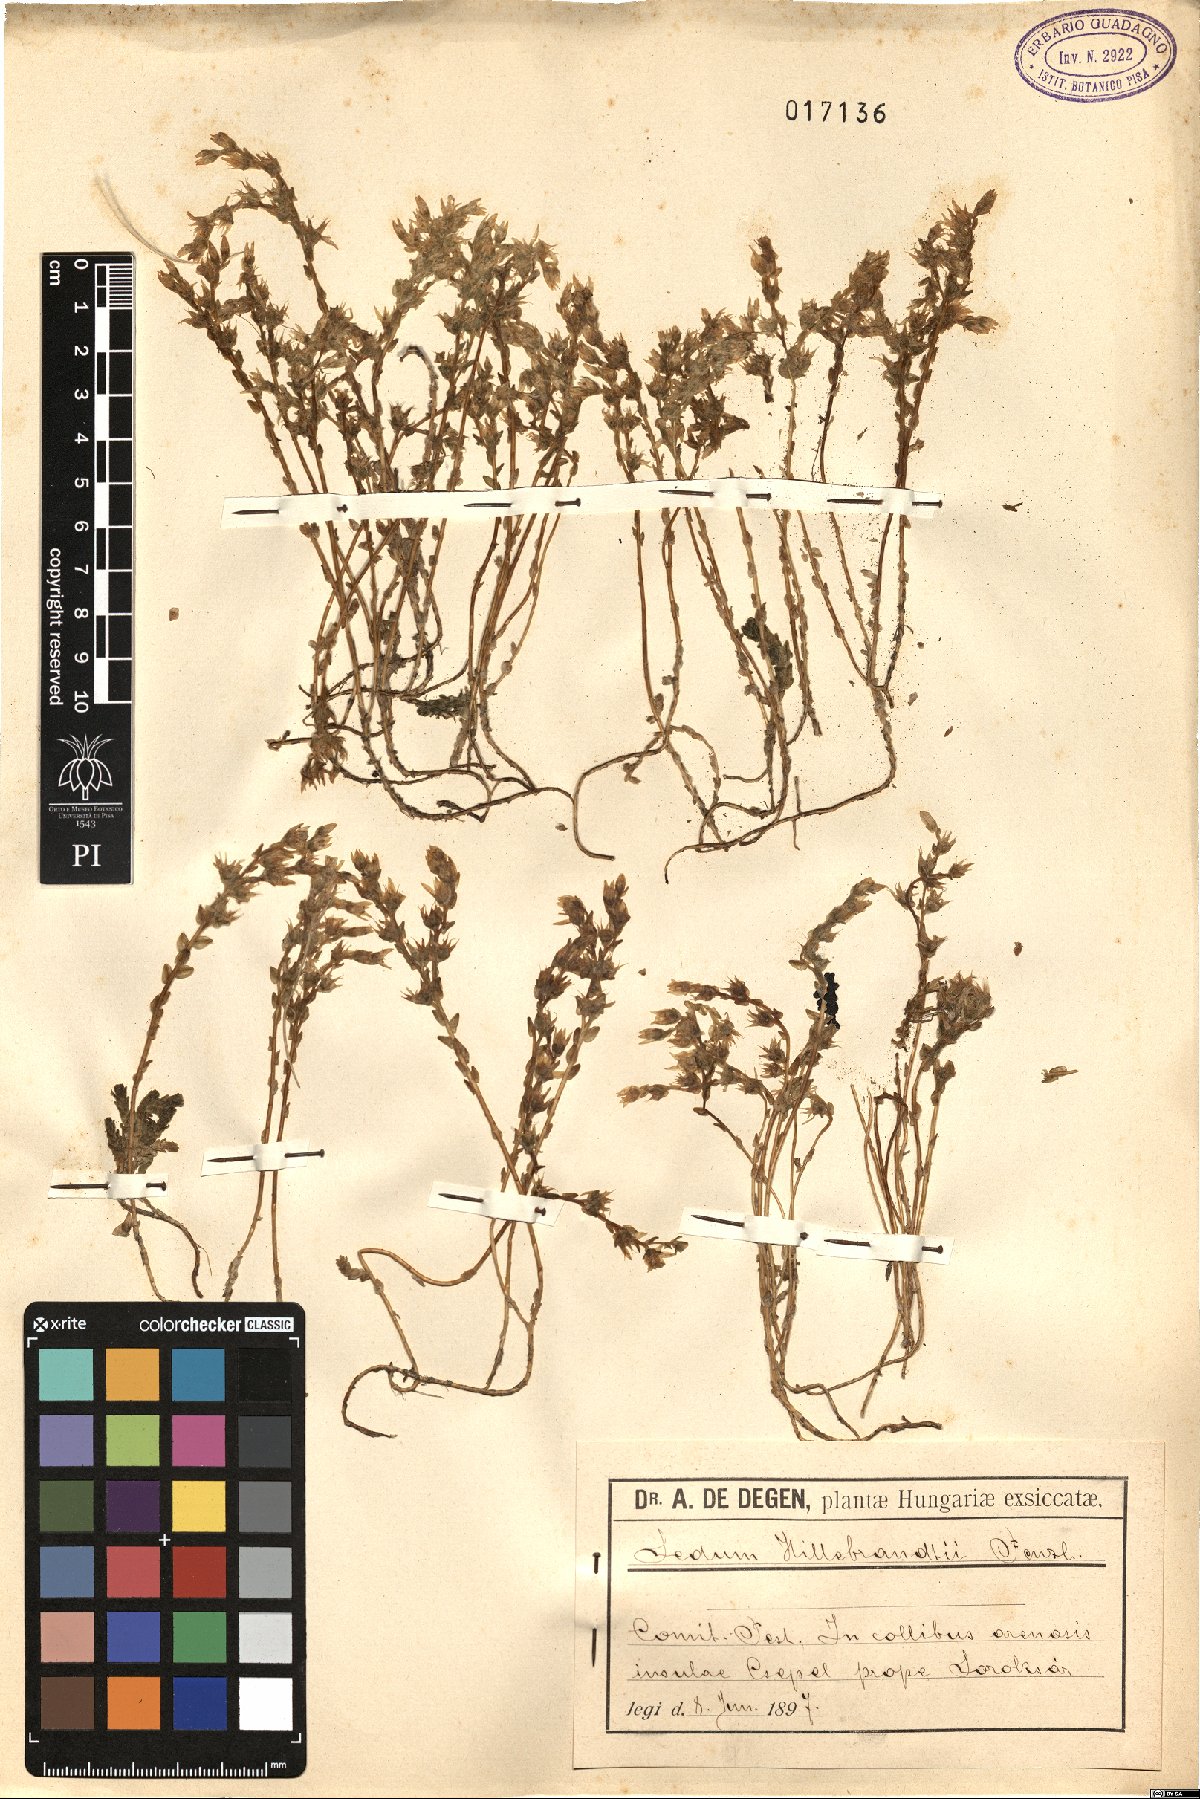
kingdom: Plantae
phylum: Tracheophyta
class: Magnoliopsida
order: Saxifragales
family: Crassulaceae
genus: Sedum
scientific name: Sedum urvillei
